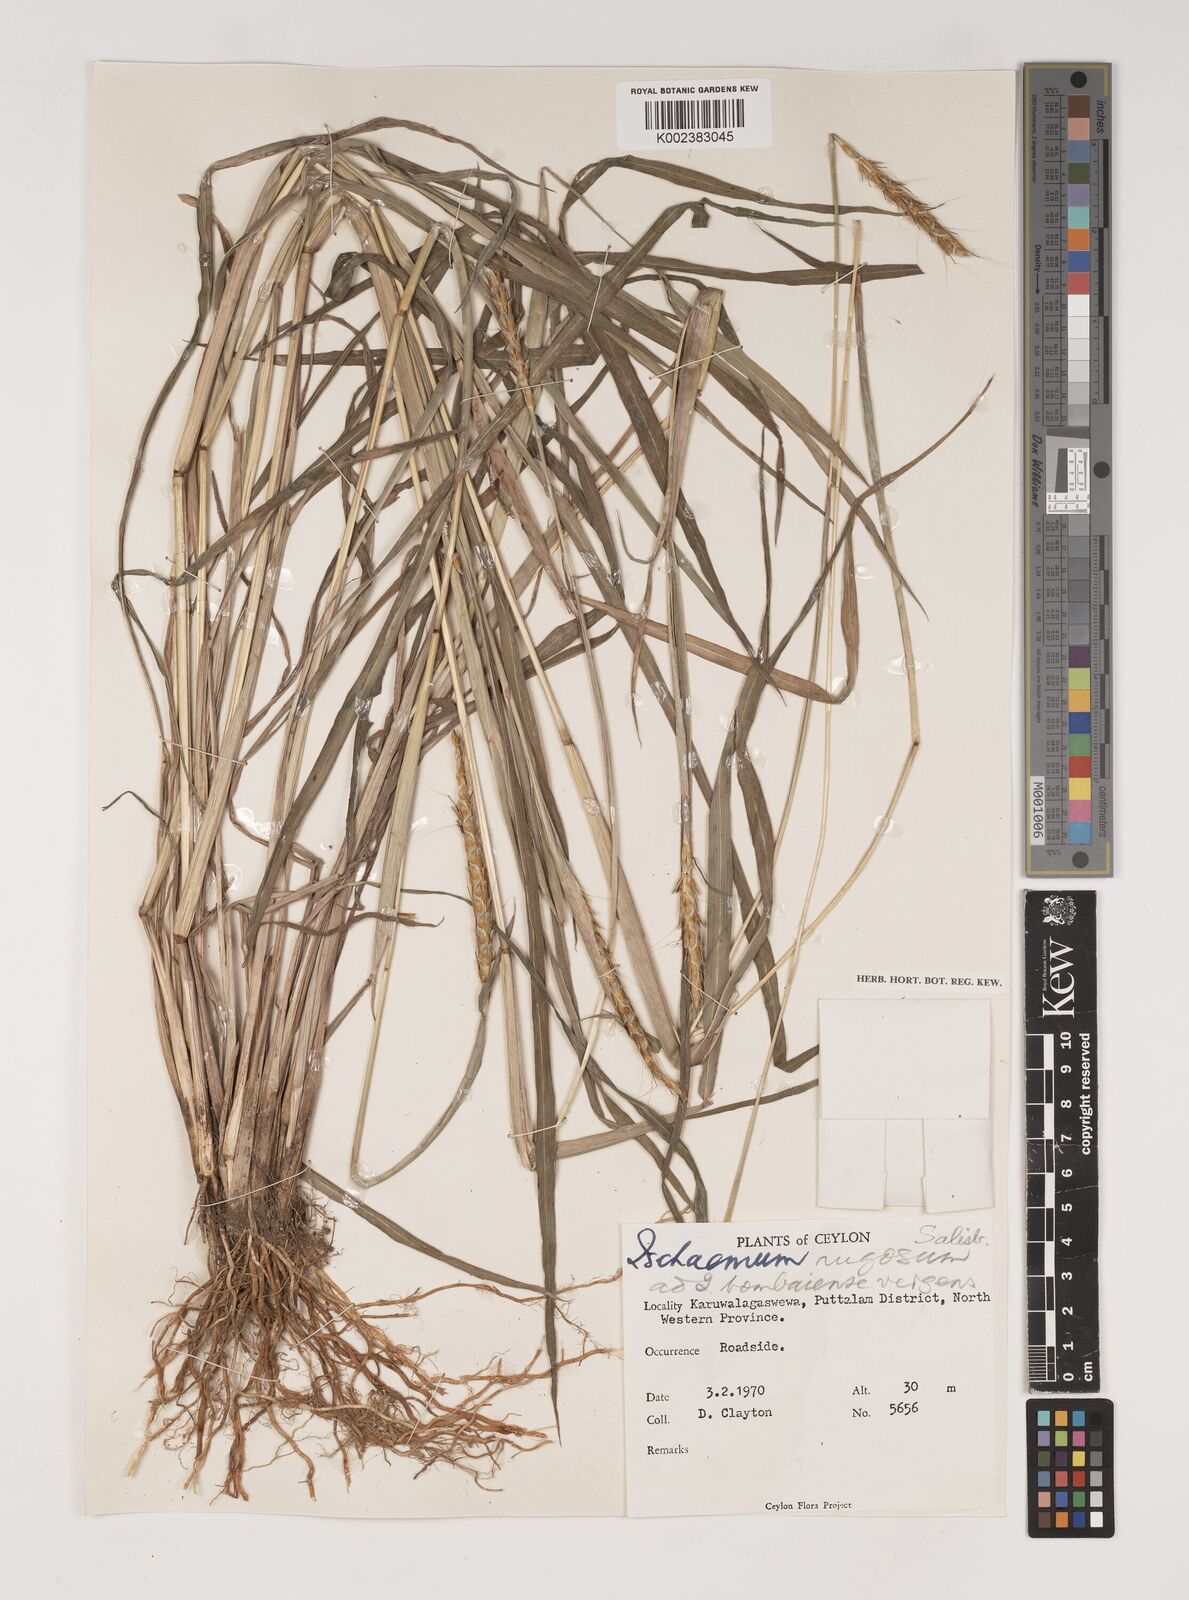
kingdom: Plantae
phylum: Tracheophyta
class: Liliopsida
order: Poales
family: Poaceae
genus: Ischaemum
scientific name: Ischaemum rugosum
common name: Saramatta grass
